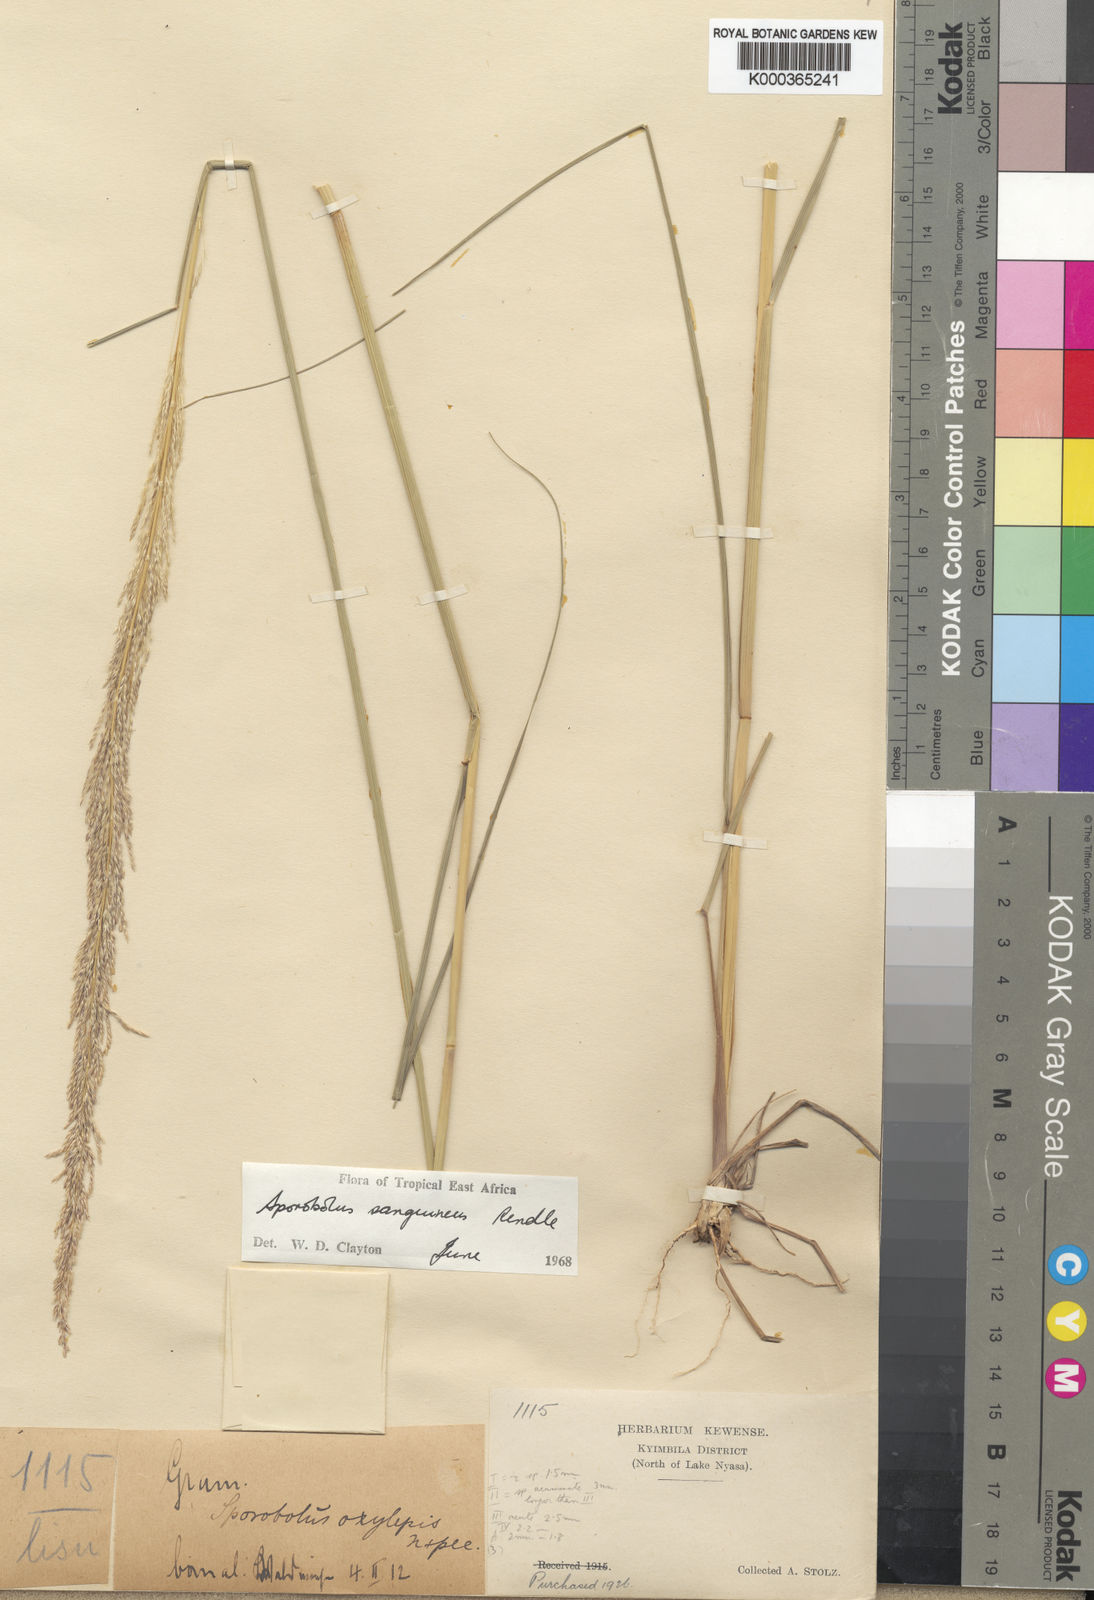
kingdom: Plantae
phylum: Tracheophyta
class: Liliopsida
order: Poales
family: Poaceae
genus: Sporobolus
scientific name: Sporobolus sanguineus
